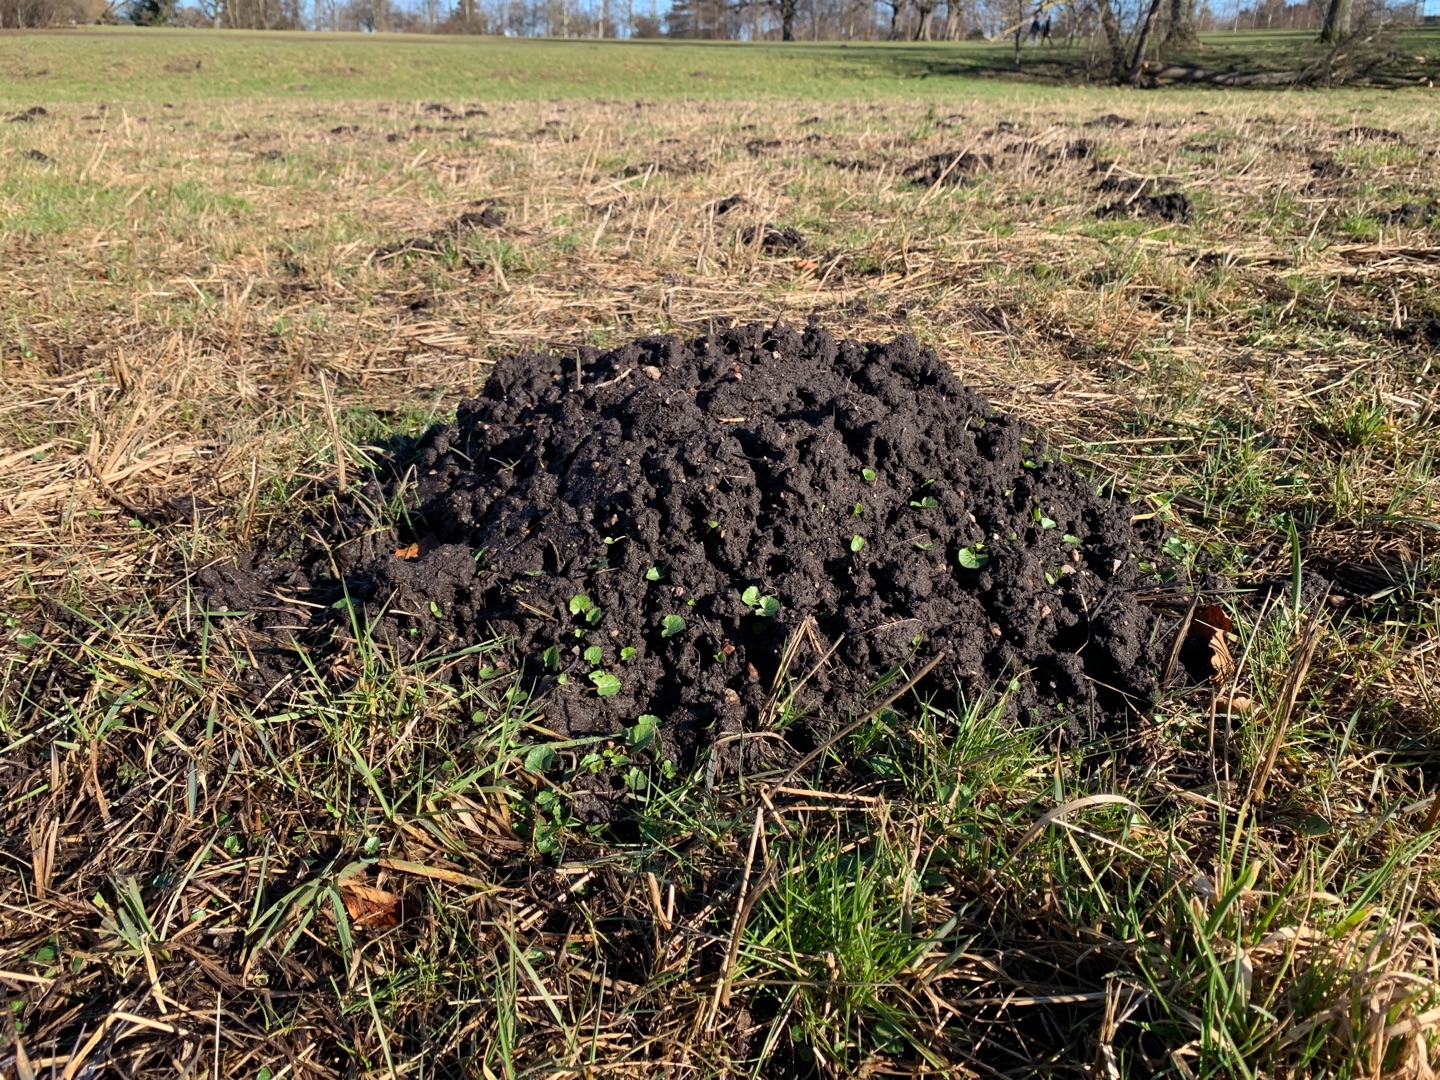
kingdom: Animalia
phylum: Chordata
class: Mammalia
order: Soricomorpha
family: Talpidae
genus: Talpa
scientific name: Talpa europaea
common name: Muldvarp
